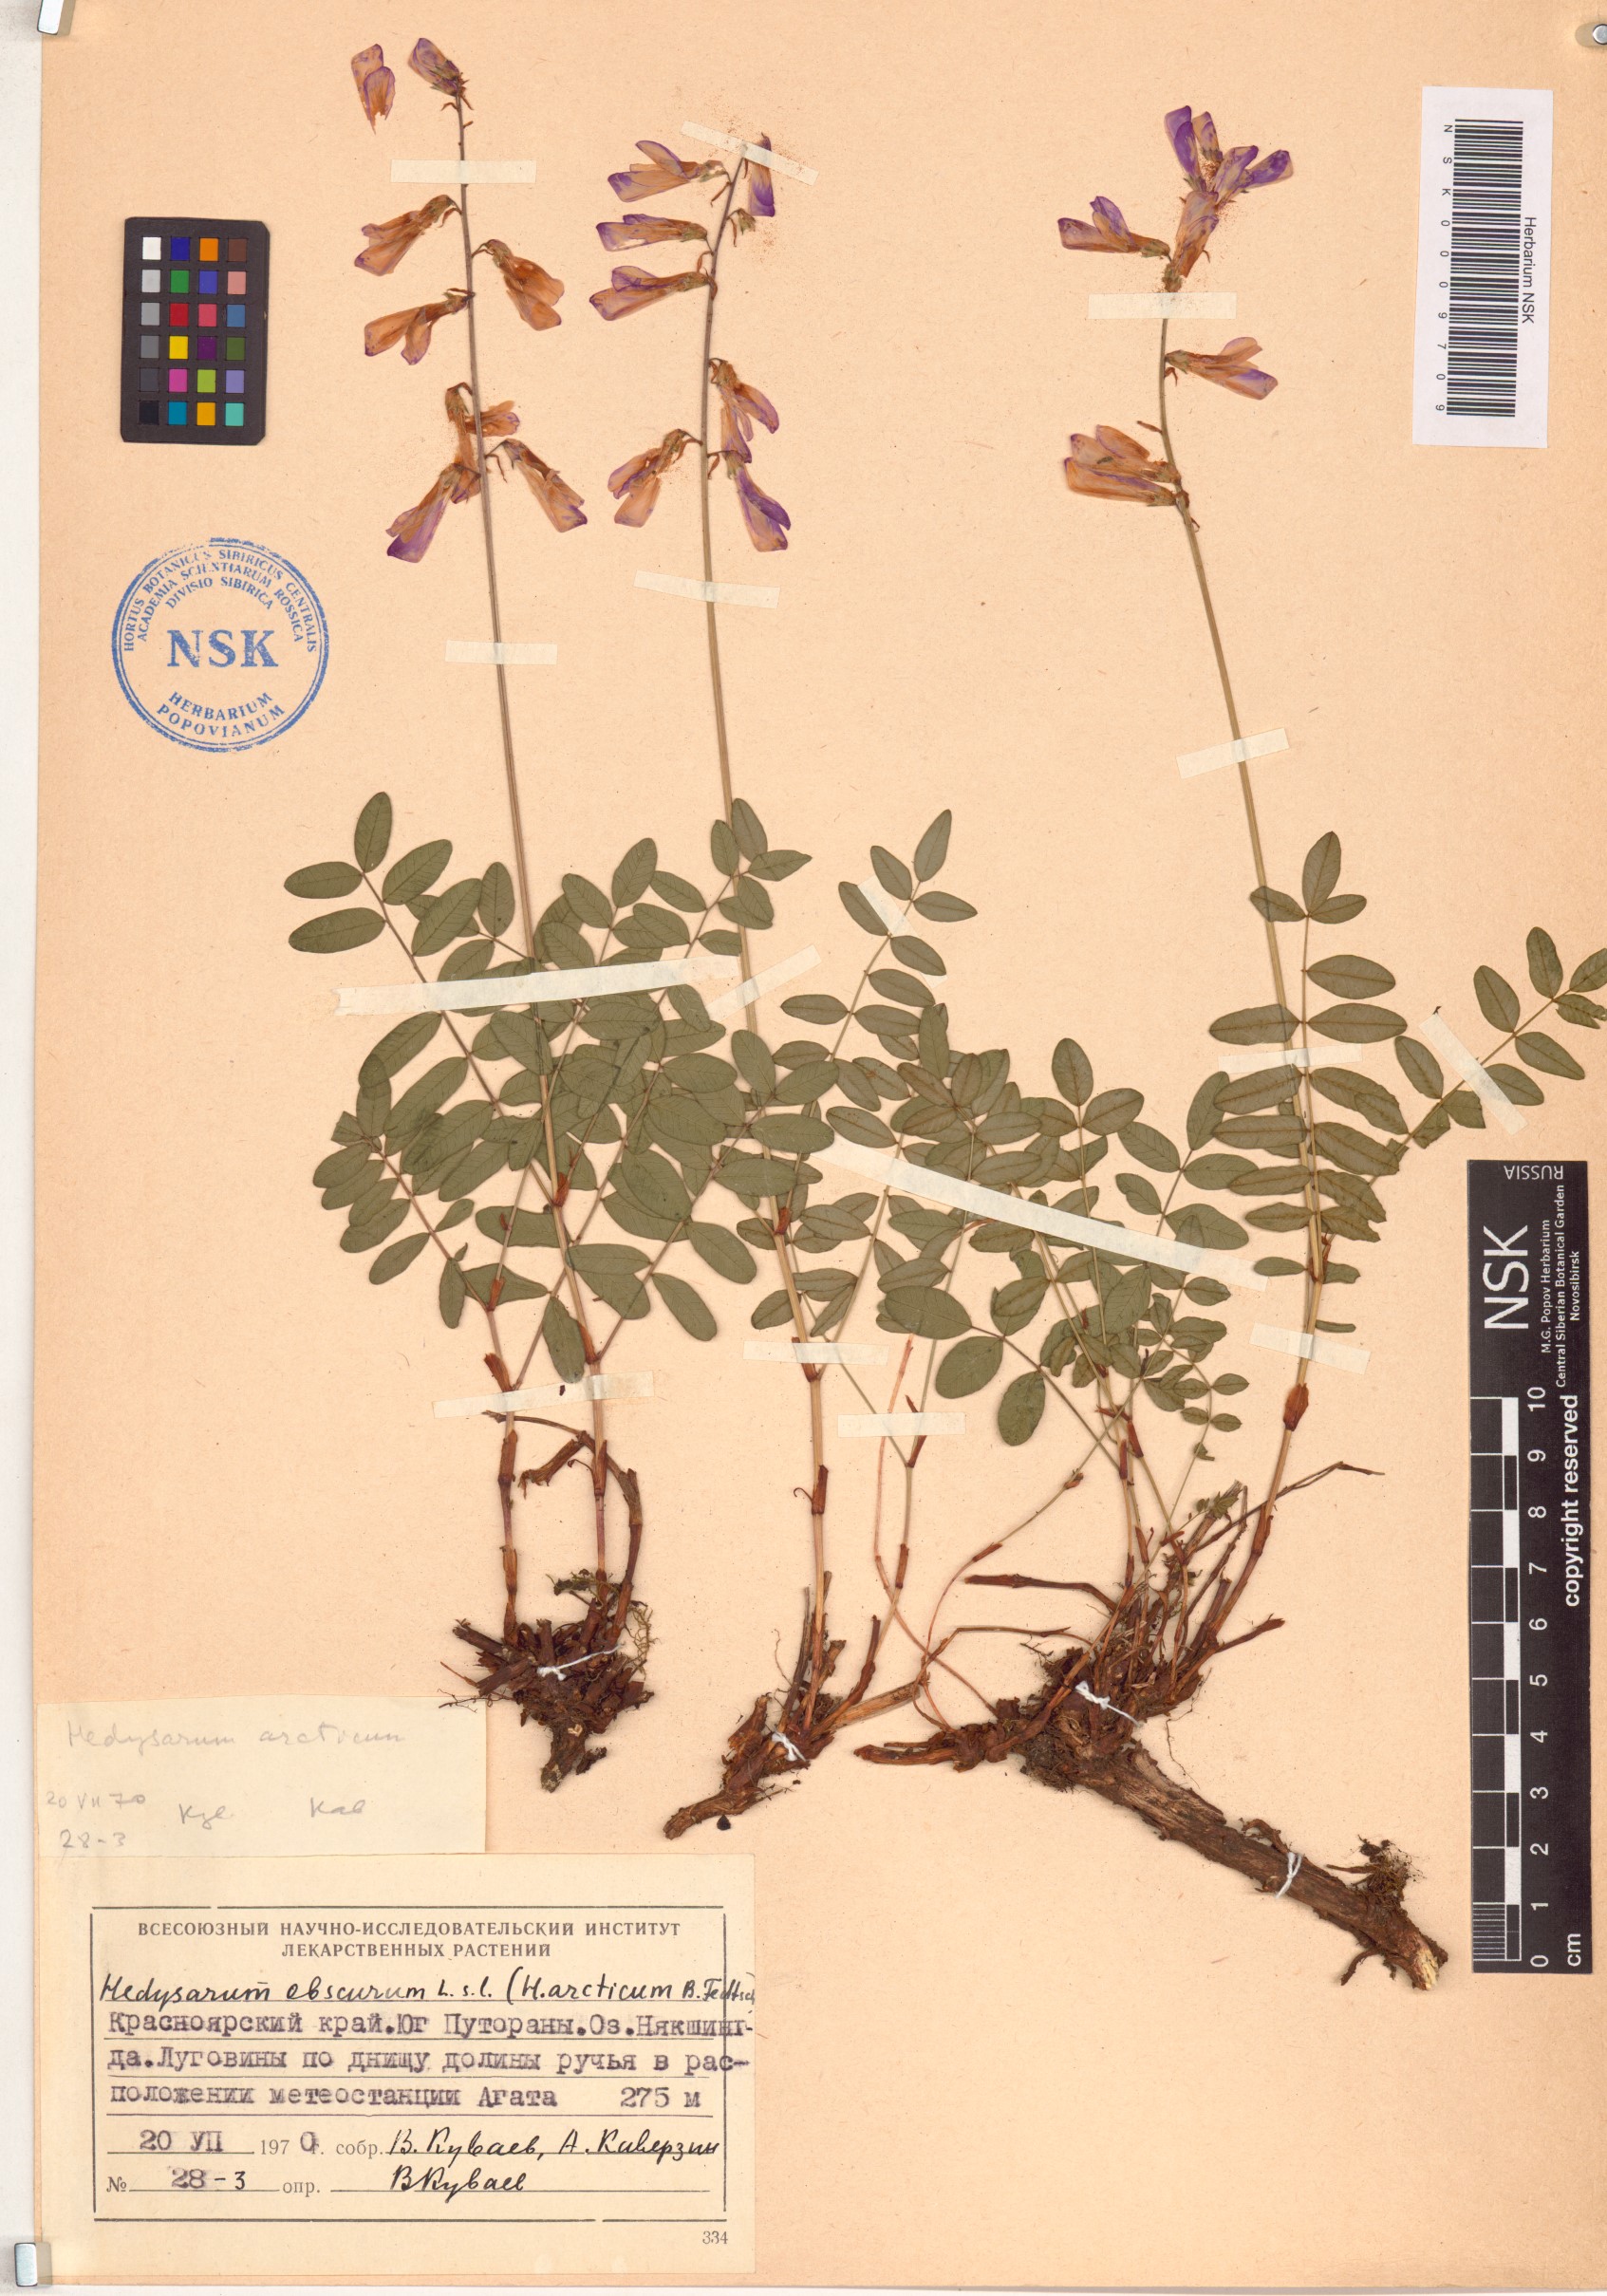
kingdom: Plantae
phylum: Tracheophyta
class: Magnoliopsida
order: Fabales
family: Fabaceae
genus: Hedysarum
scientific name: Hedysarum hedysaroides
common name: Alpine french-honeysuckle
